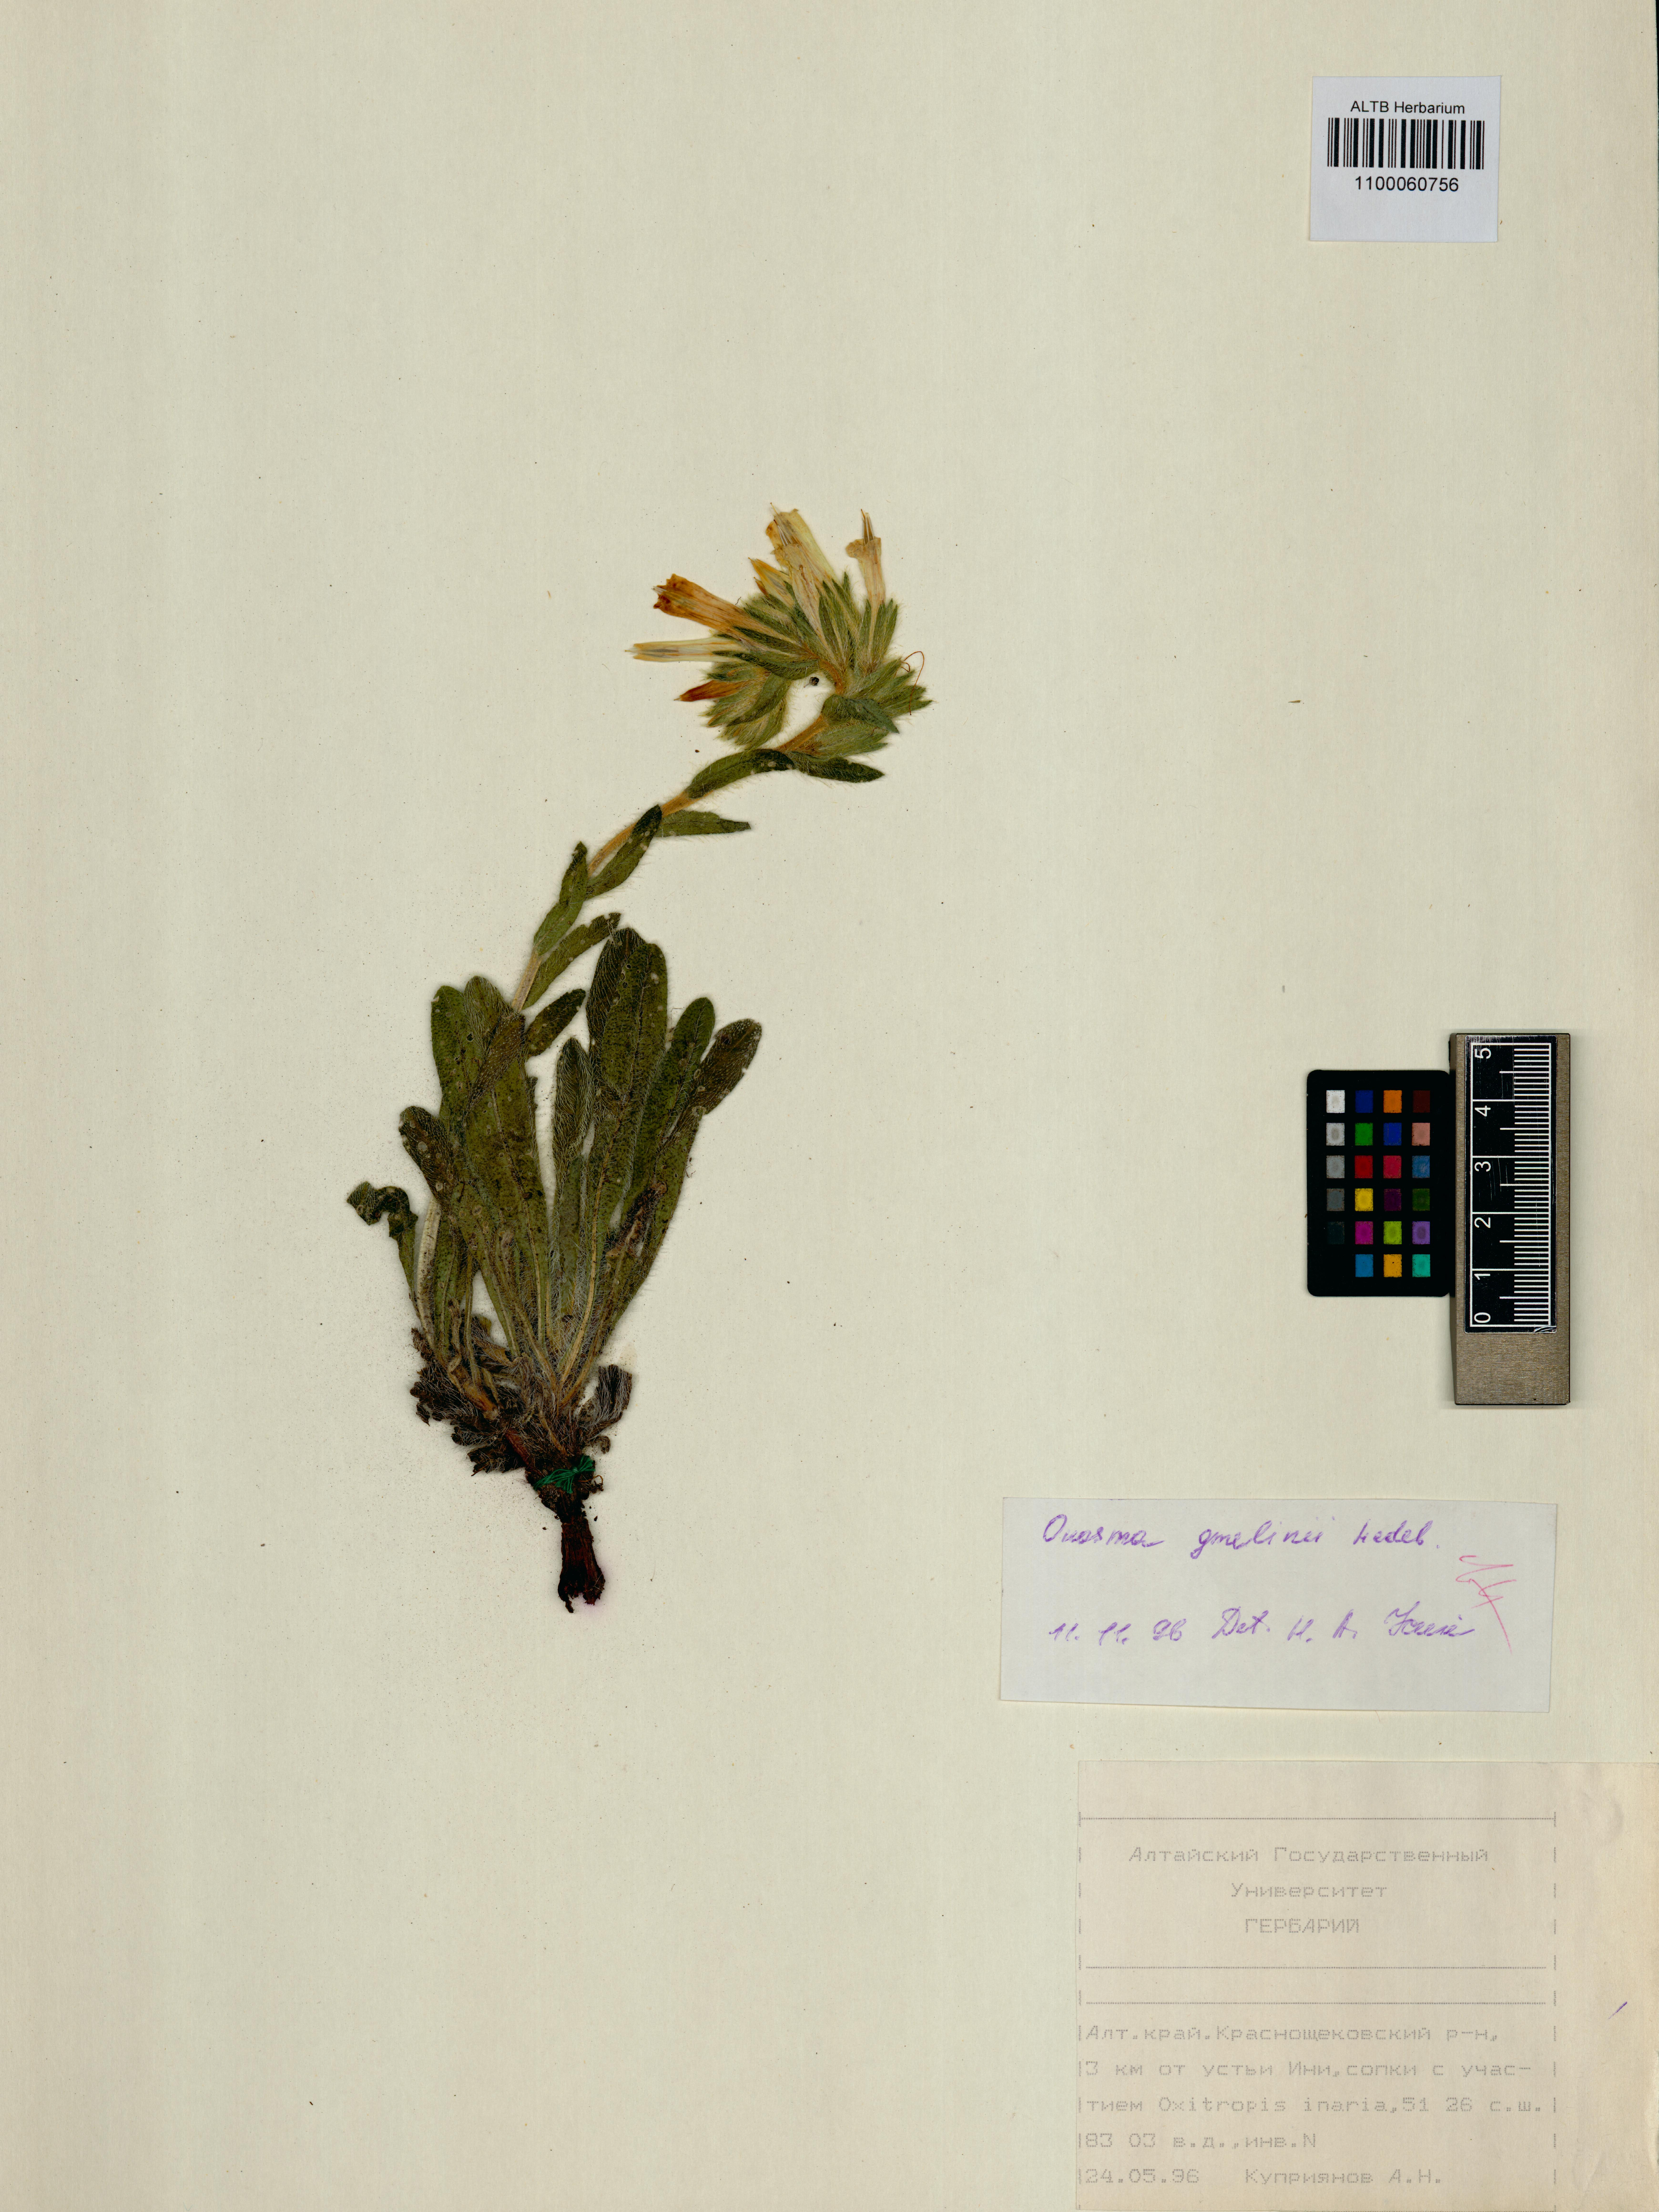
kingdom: Plantae
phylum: Tracheophyta
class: Magnoliopsida
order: Boraginales
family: Boraginaceae
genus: Onosma
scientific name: Onosma gmelinii
